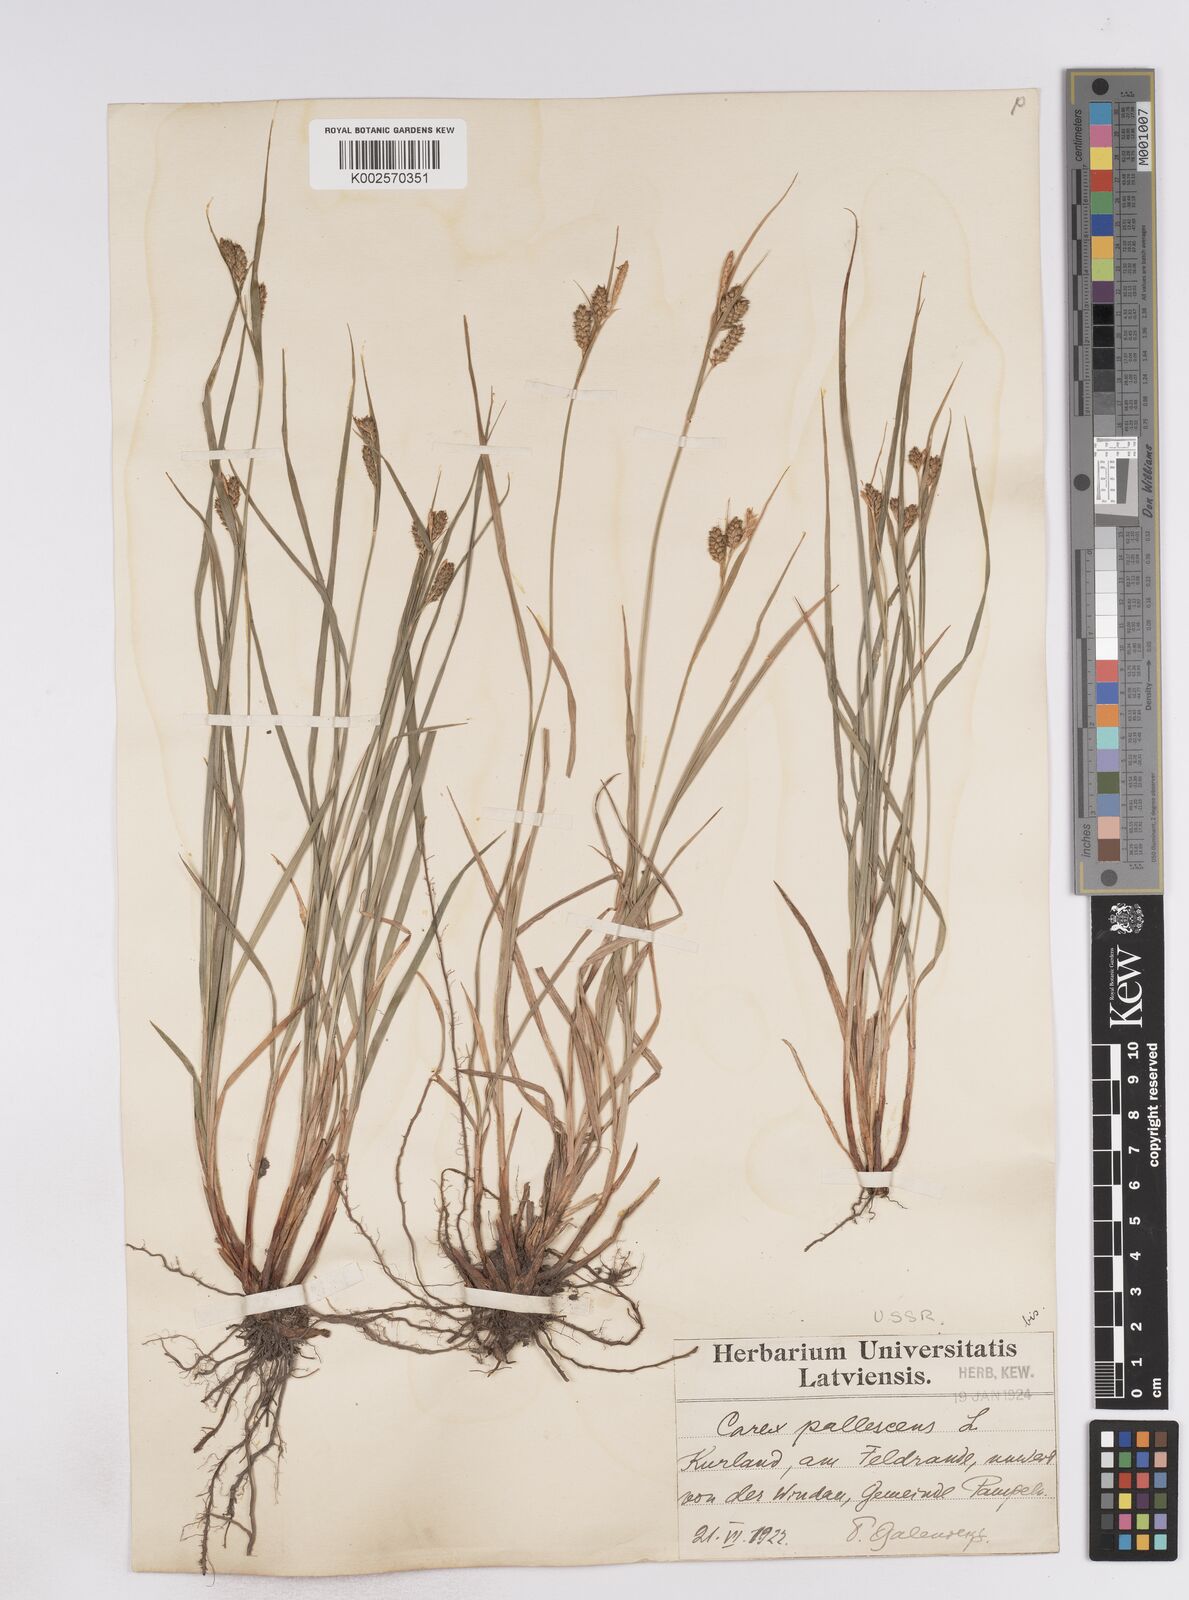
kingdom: Plantae
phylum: Tracheophyta
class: Liliopsida
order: Poales
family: Cyperaceae
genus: Carex
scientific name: Carex pallescens
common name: Pale sedge
